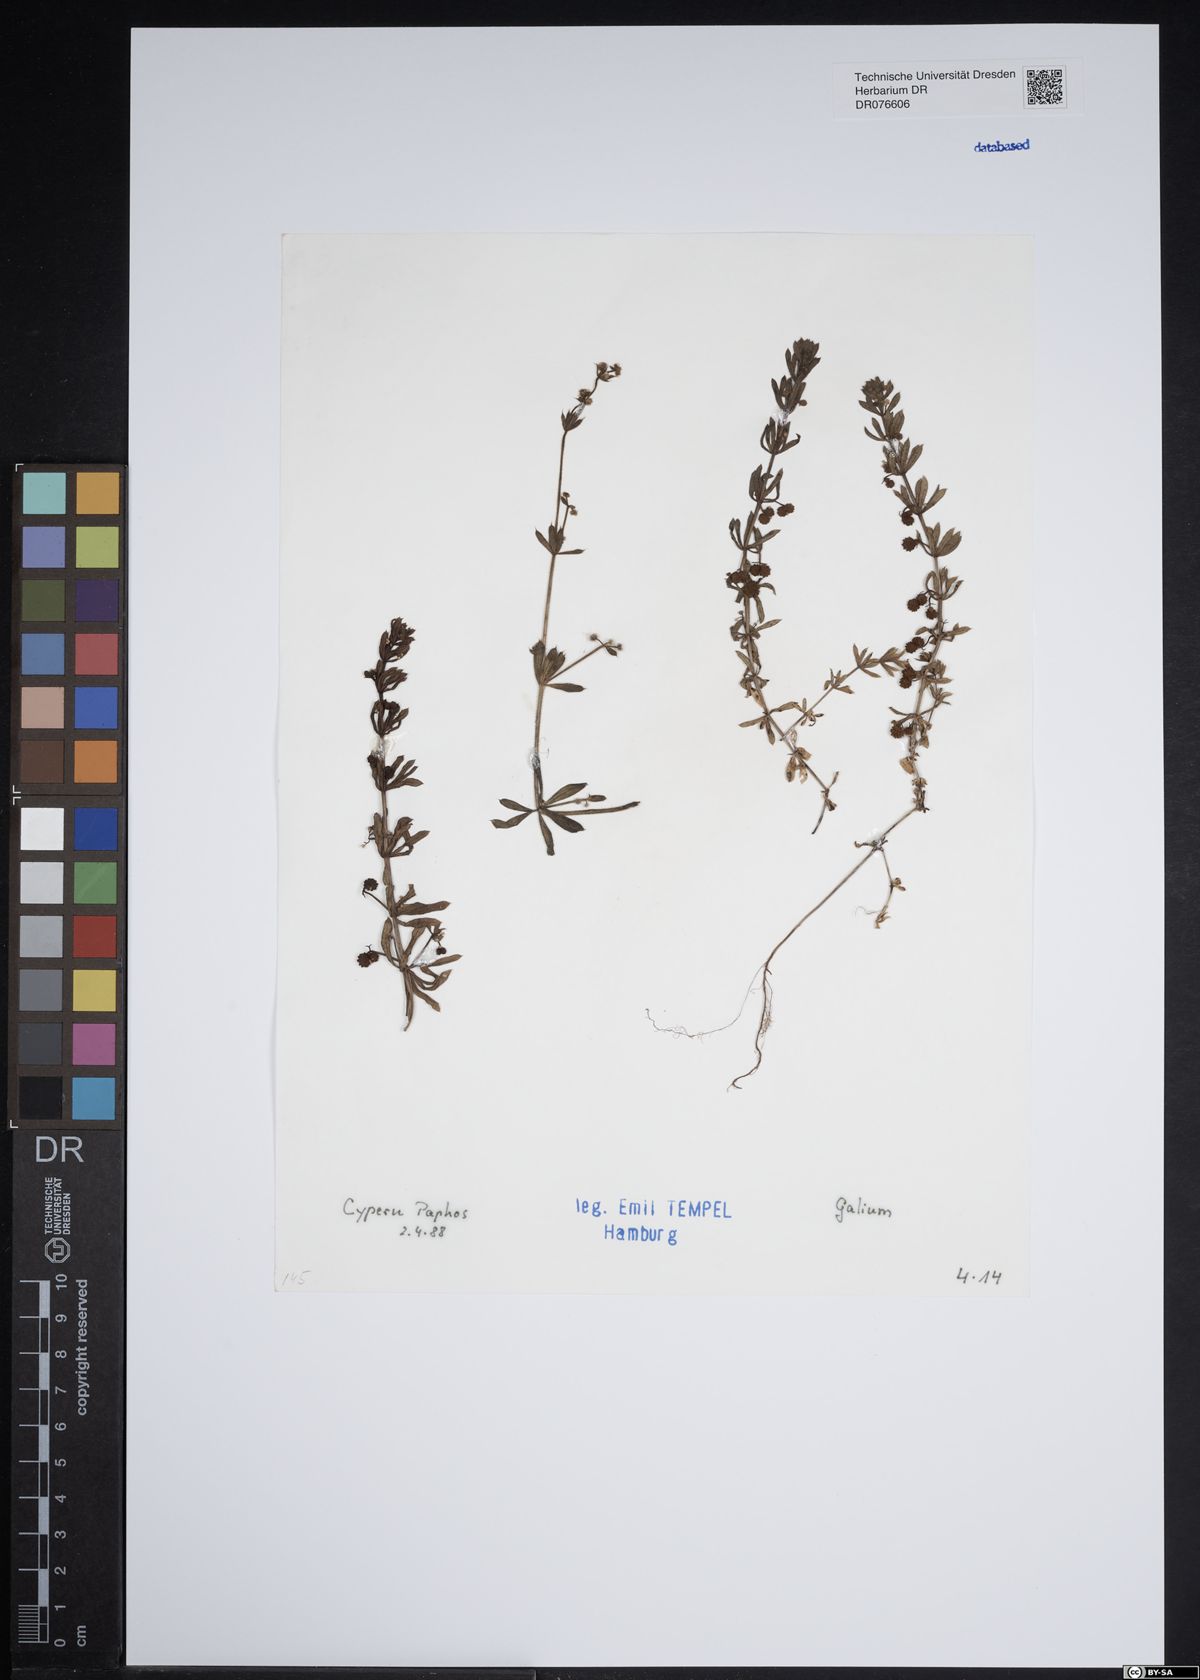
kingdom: Plantae
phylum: Tracheophyta
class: Magnoliopsida
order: Gentianales
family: Rubiaceae
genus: Galium
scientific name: Galium
